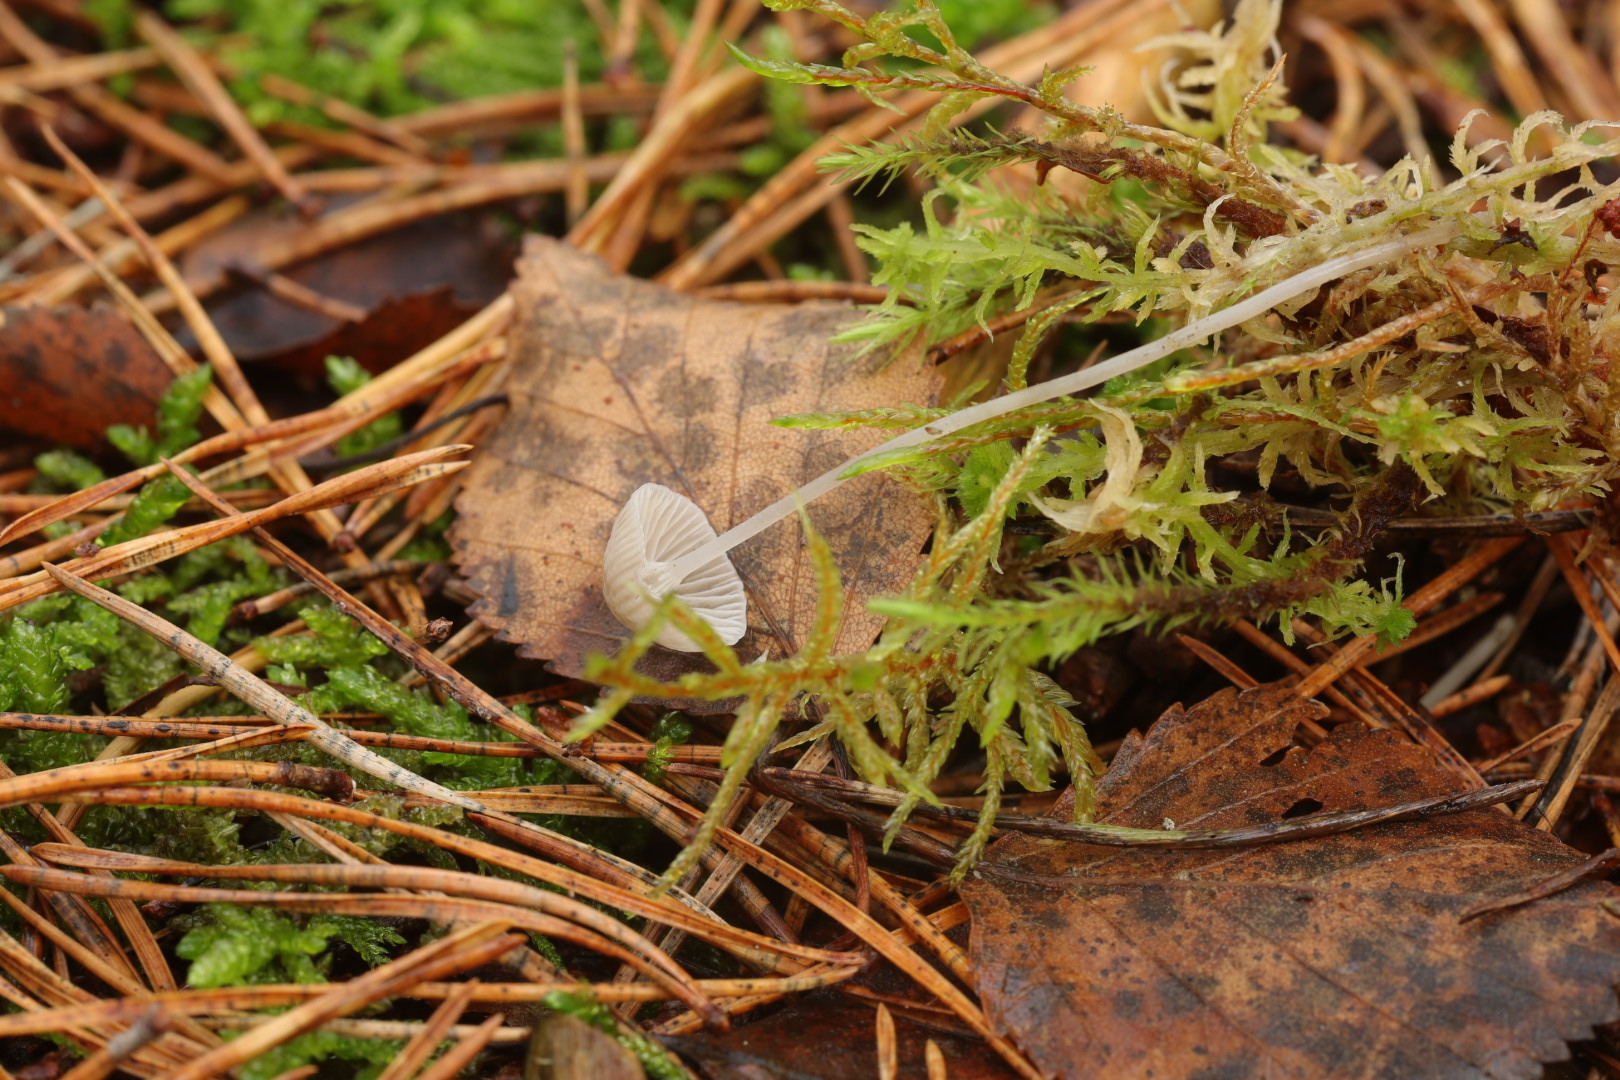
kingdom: Fungi
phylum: Basidiomycota
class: Agaricomycetes
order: Agaricales
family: Mycenaceae
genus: Mycena
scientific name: Mycena cinerella
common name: mel-huesvamp
